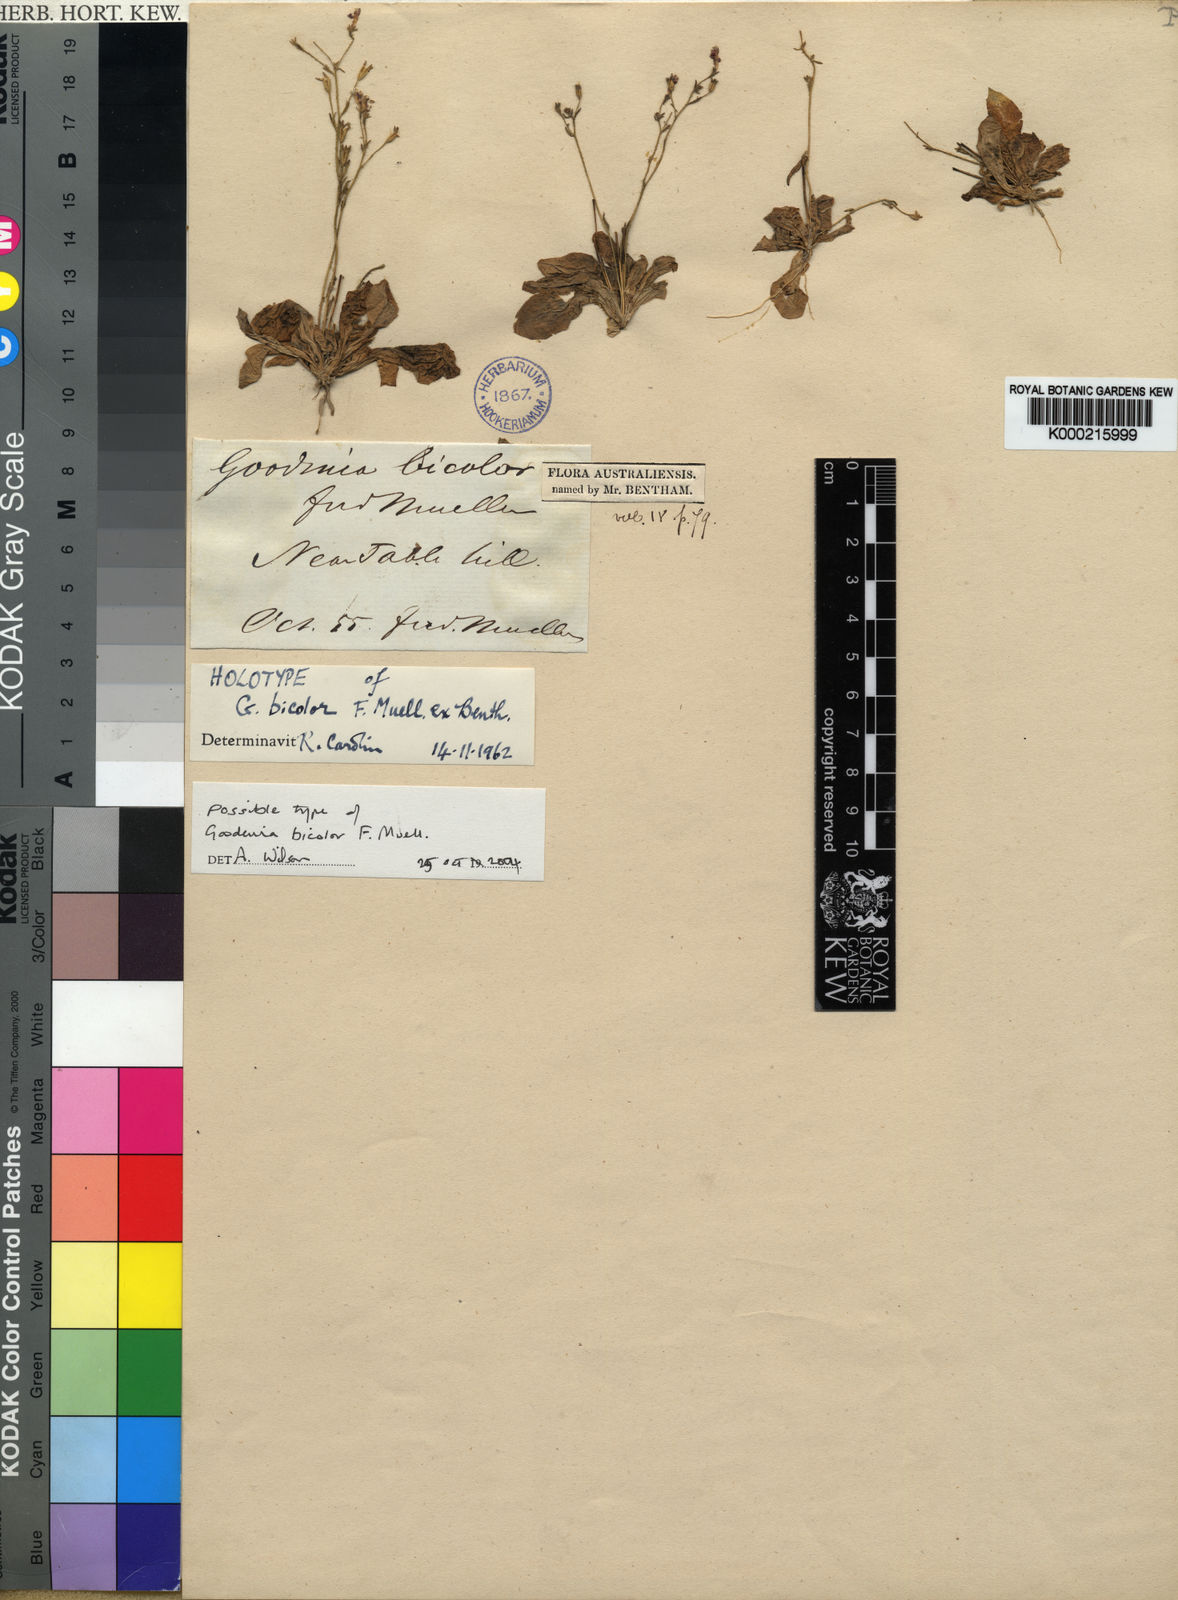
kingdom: Plantae
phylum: Tracheophyta
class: Magnoliopsida
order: Asterales
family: Goodeniaceae
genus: Goodenia
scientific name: Goodenia bicolor
